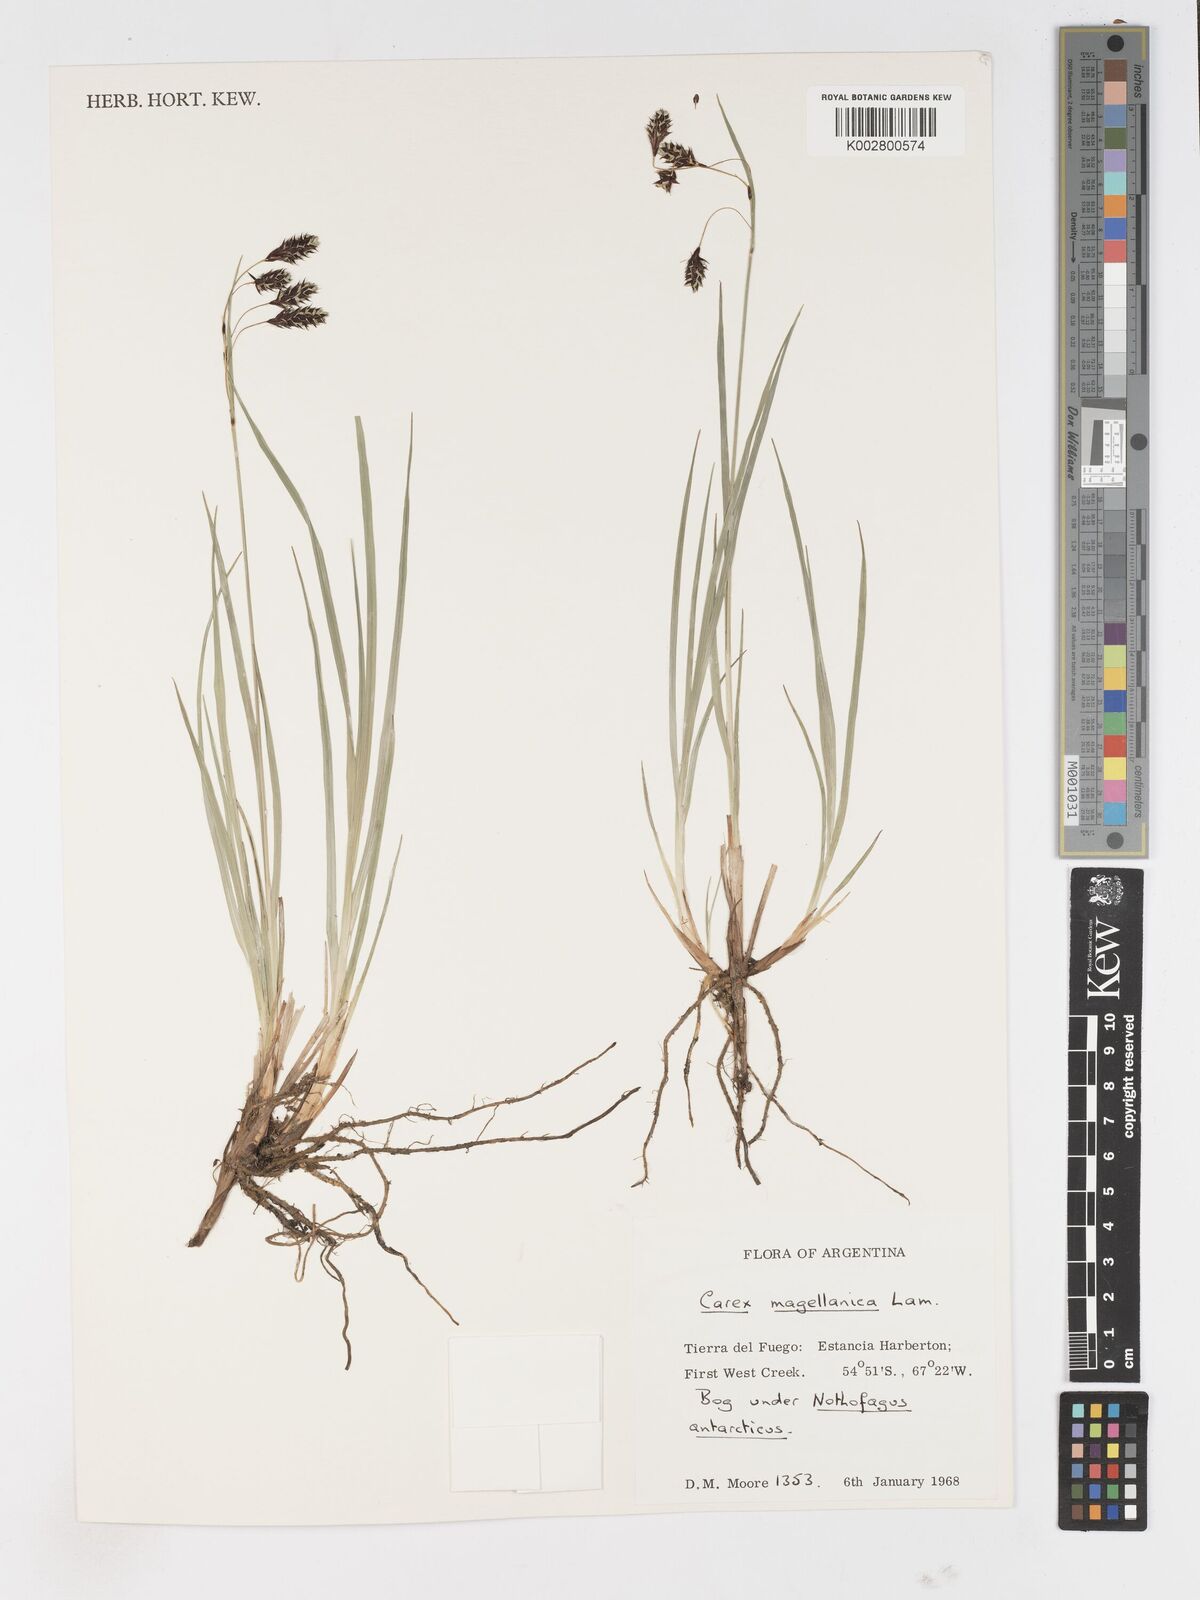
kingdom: Plantae
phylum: Tracheophyta
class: Liliopsida
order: Poales
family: Cyperaceae
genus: Carex
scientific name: Carex magellanica
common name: Bog sedge
